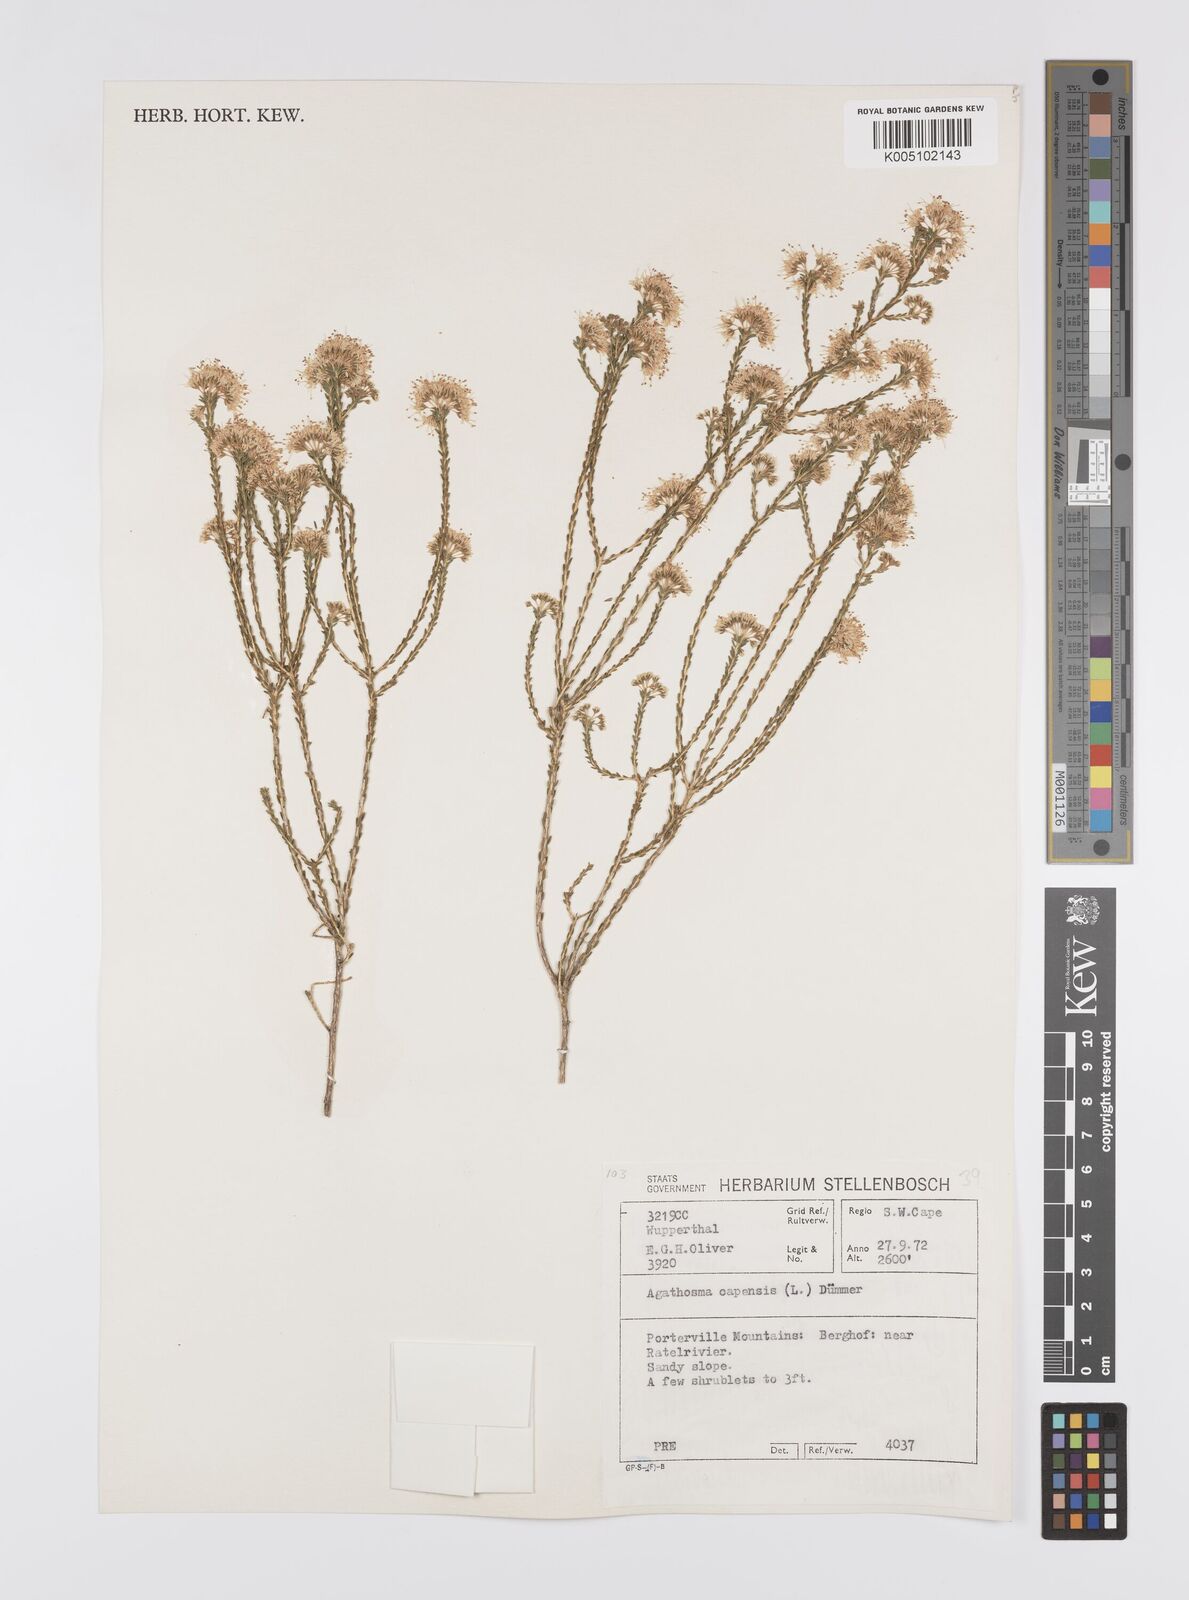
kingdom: Plantae
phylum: Tracheophyta
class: Magnoliopsida
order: Sapindales
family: Rutaceae
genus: Agathosma
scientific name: Agathosma capensis
